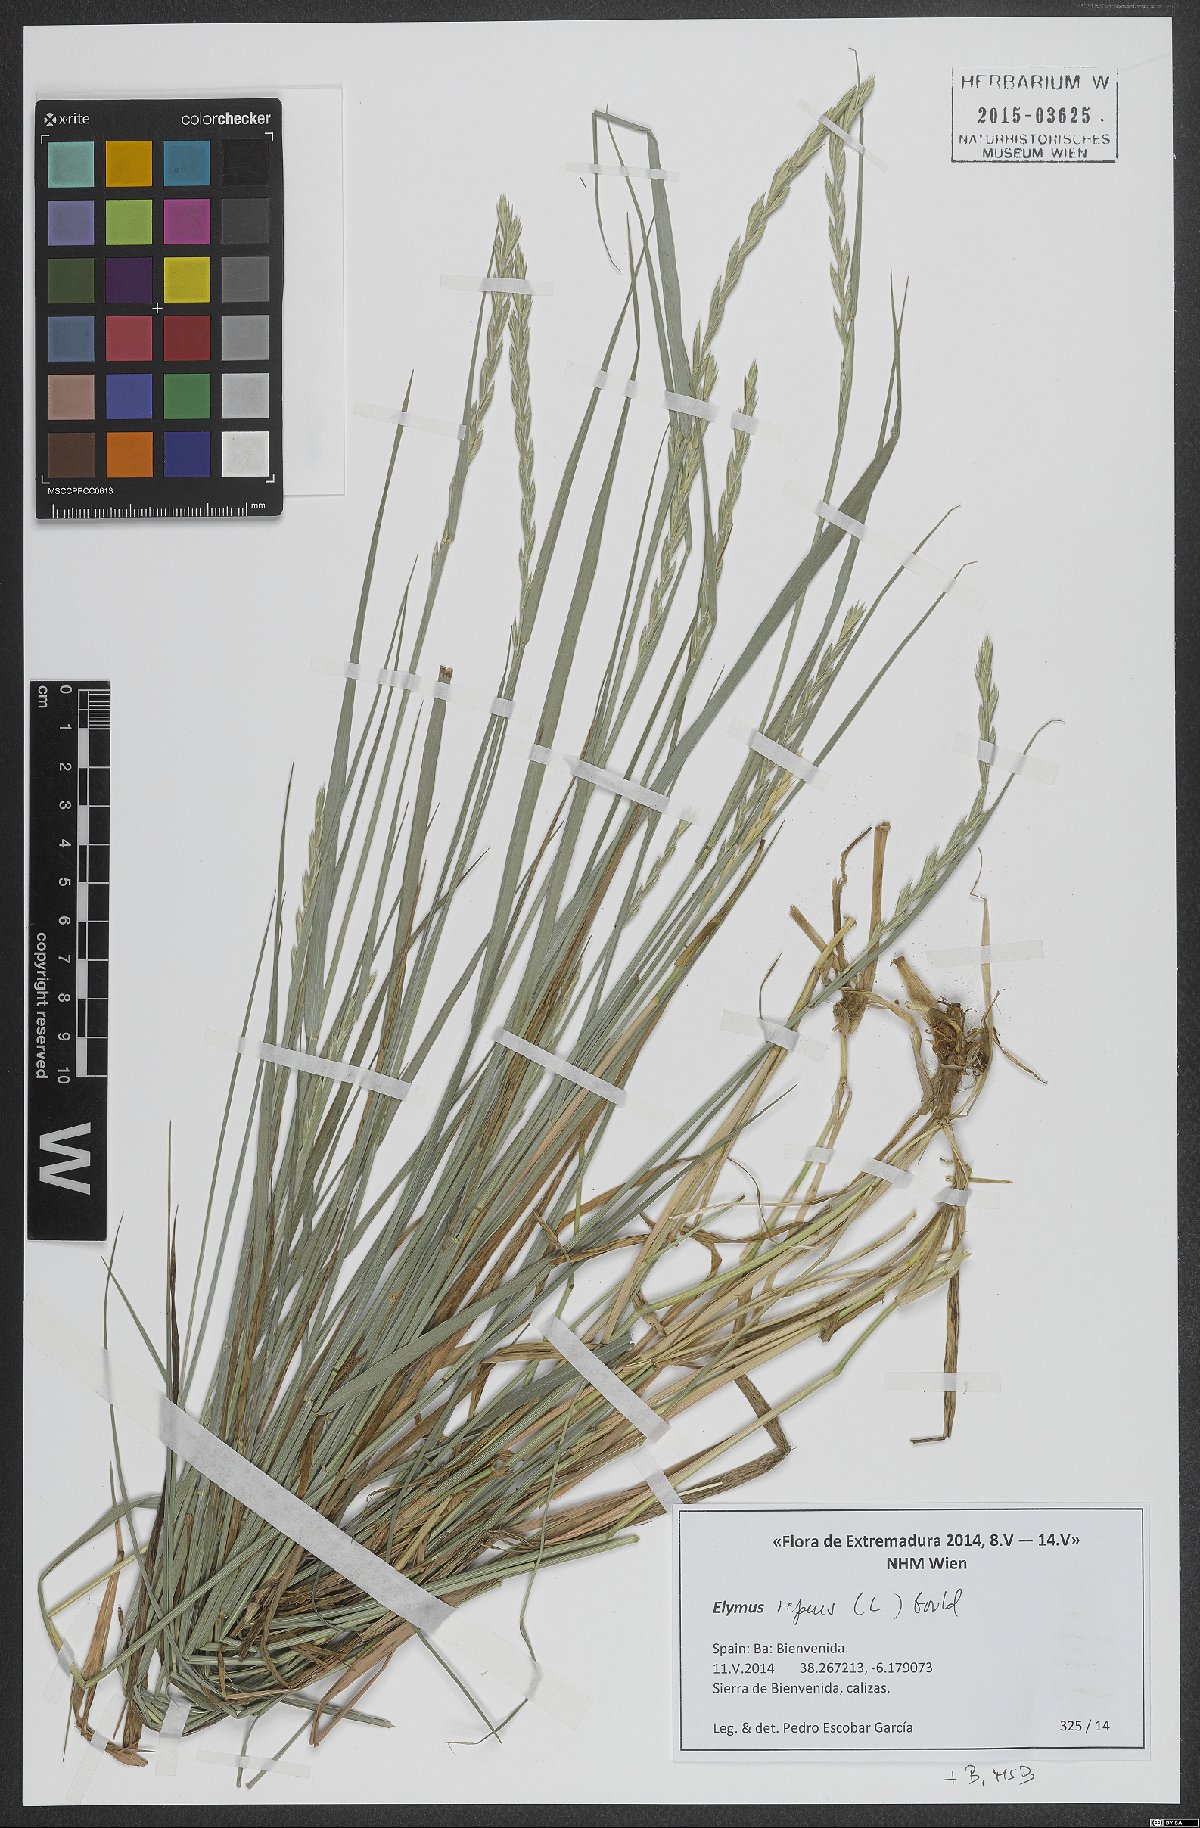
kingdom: Plantae
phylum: Tracheophyta
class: Liliopsida
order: Poales
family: Poaceae
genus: Elymus
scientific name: Elymus repens
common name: Quackgrass
